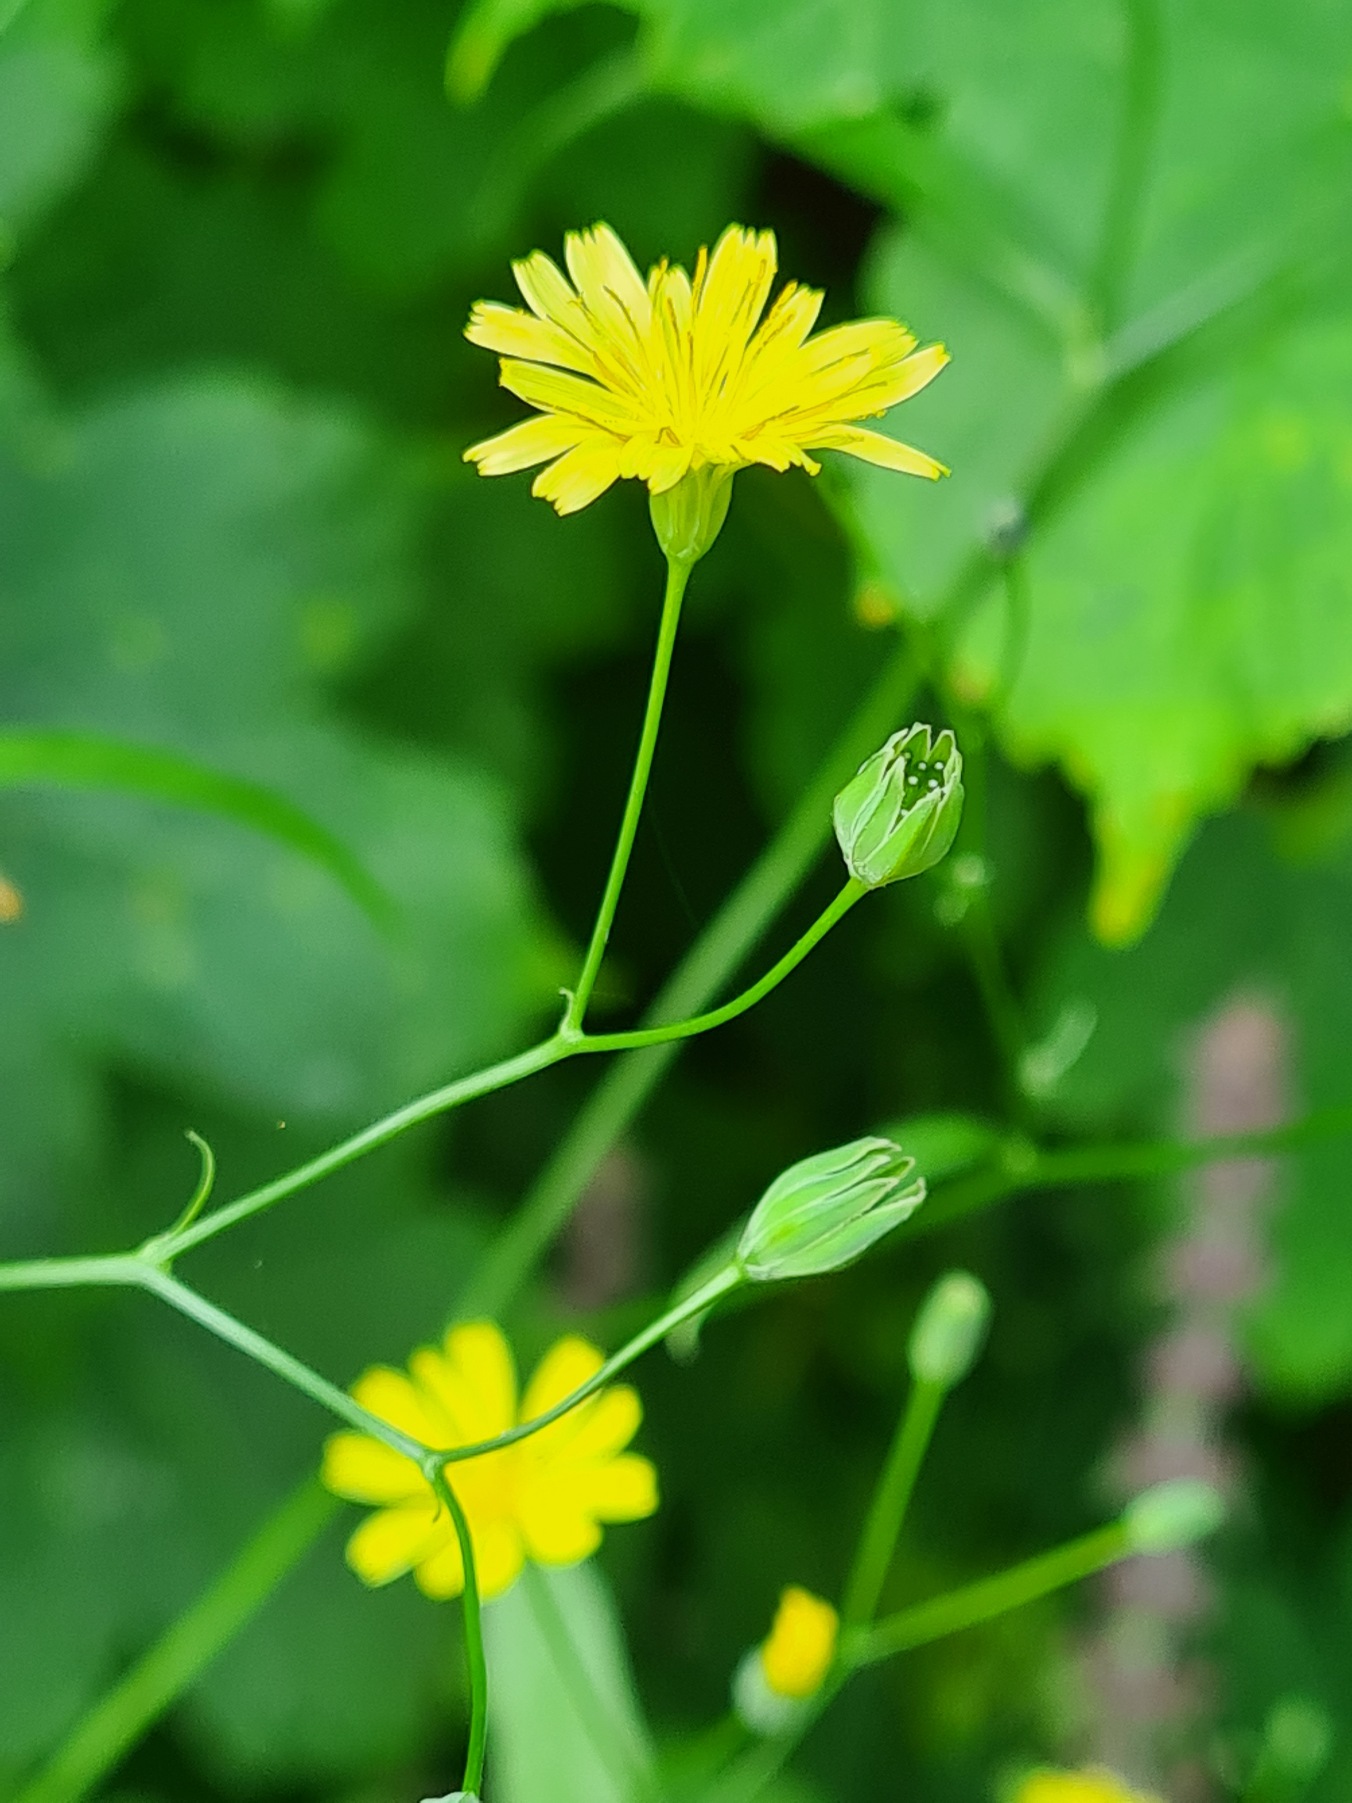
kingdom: Plantae
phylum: Tracheophyta
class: Magnoliopsida
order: Asterales
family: Asteraceae
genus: Lapsana
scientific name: Lapsana communis
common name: Haremad
